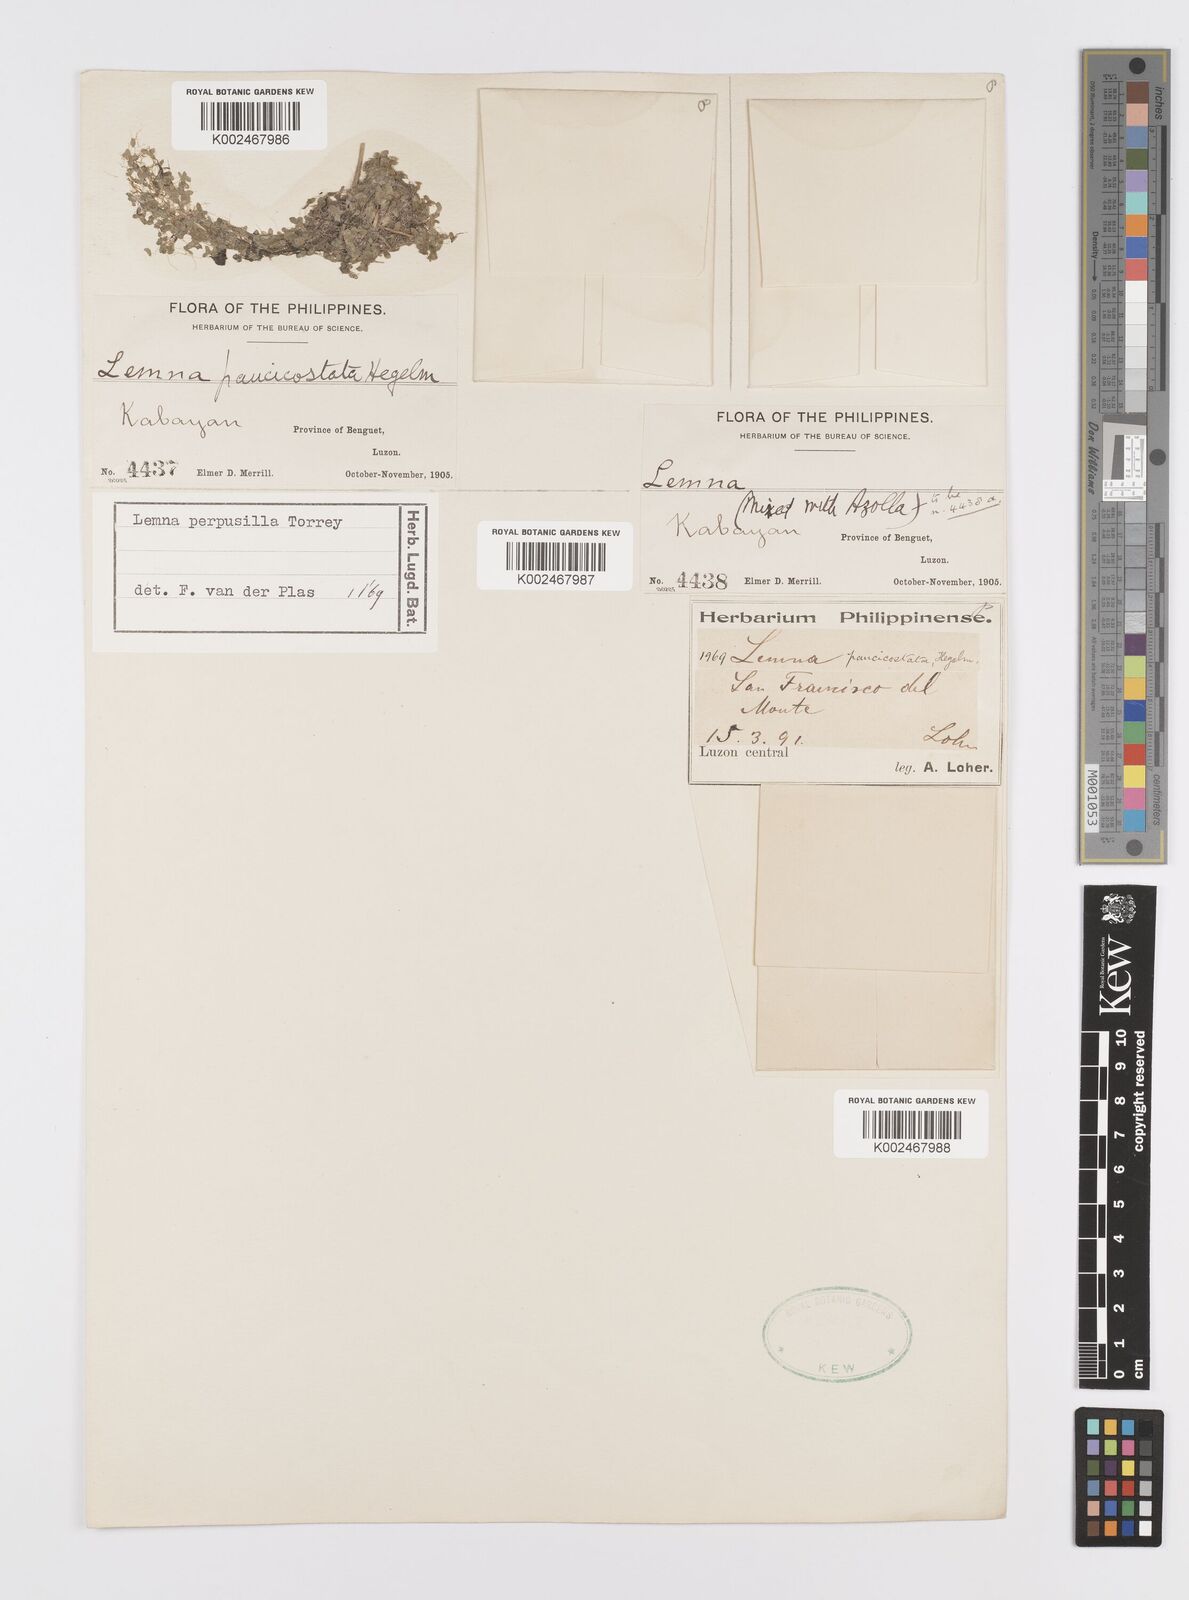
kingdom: Plantae
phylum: Tracheophyta
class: Liliopsida
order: Alismatales
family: Araceae
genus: Lemna
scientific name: Lemna perpusilla
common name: Duckweed
